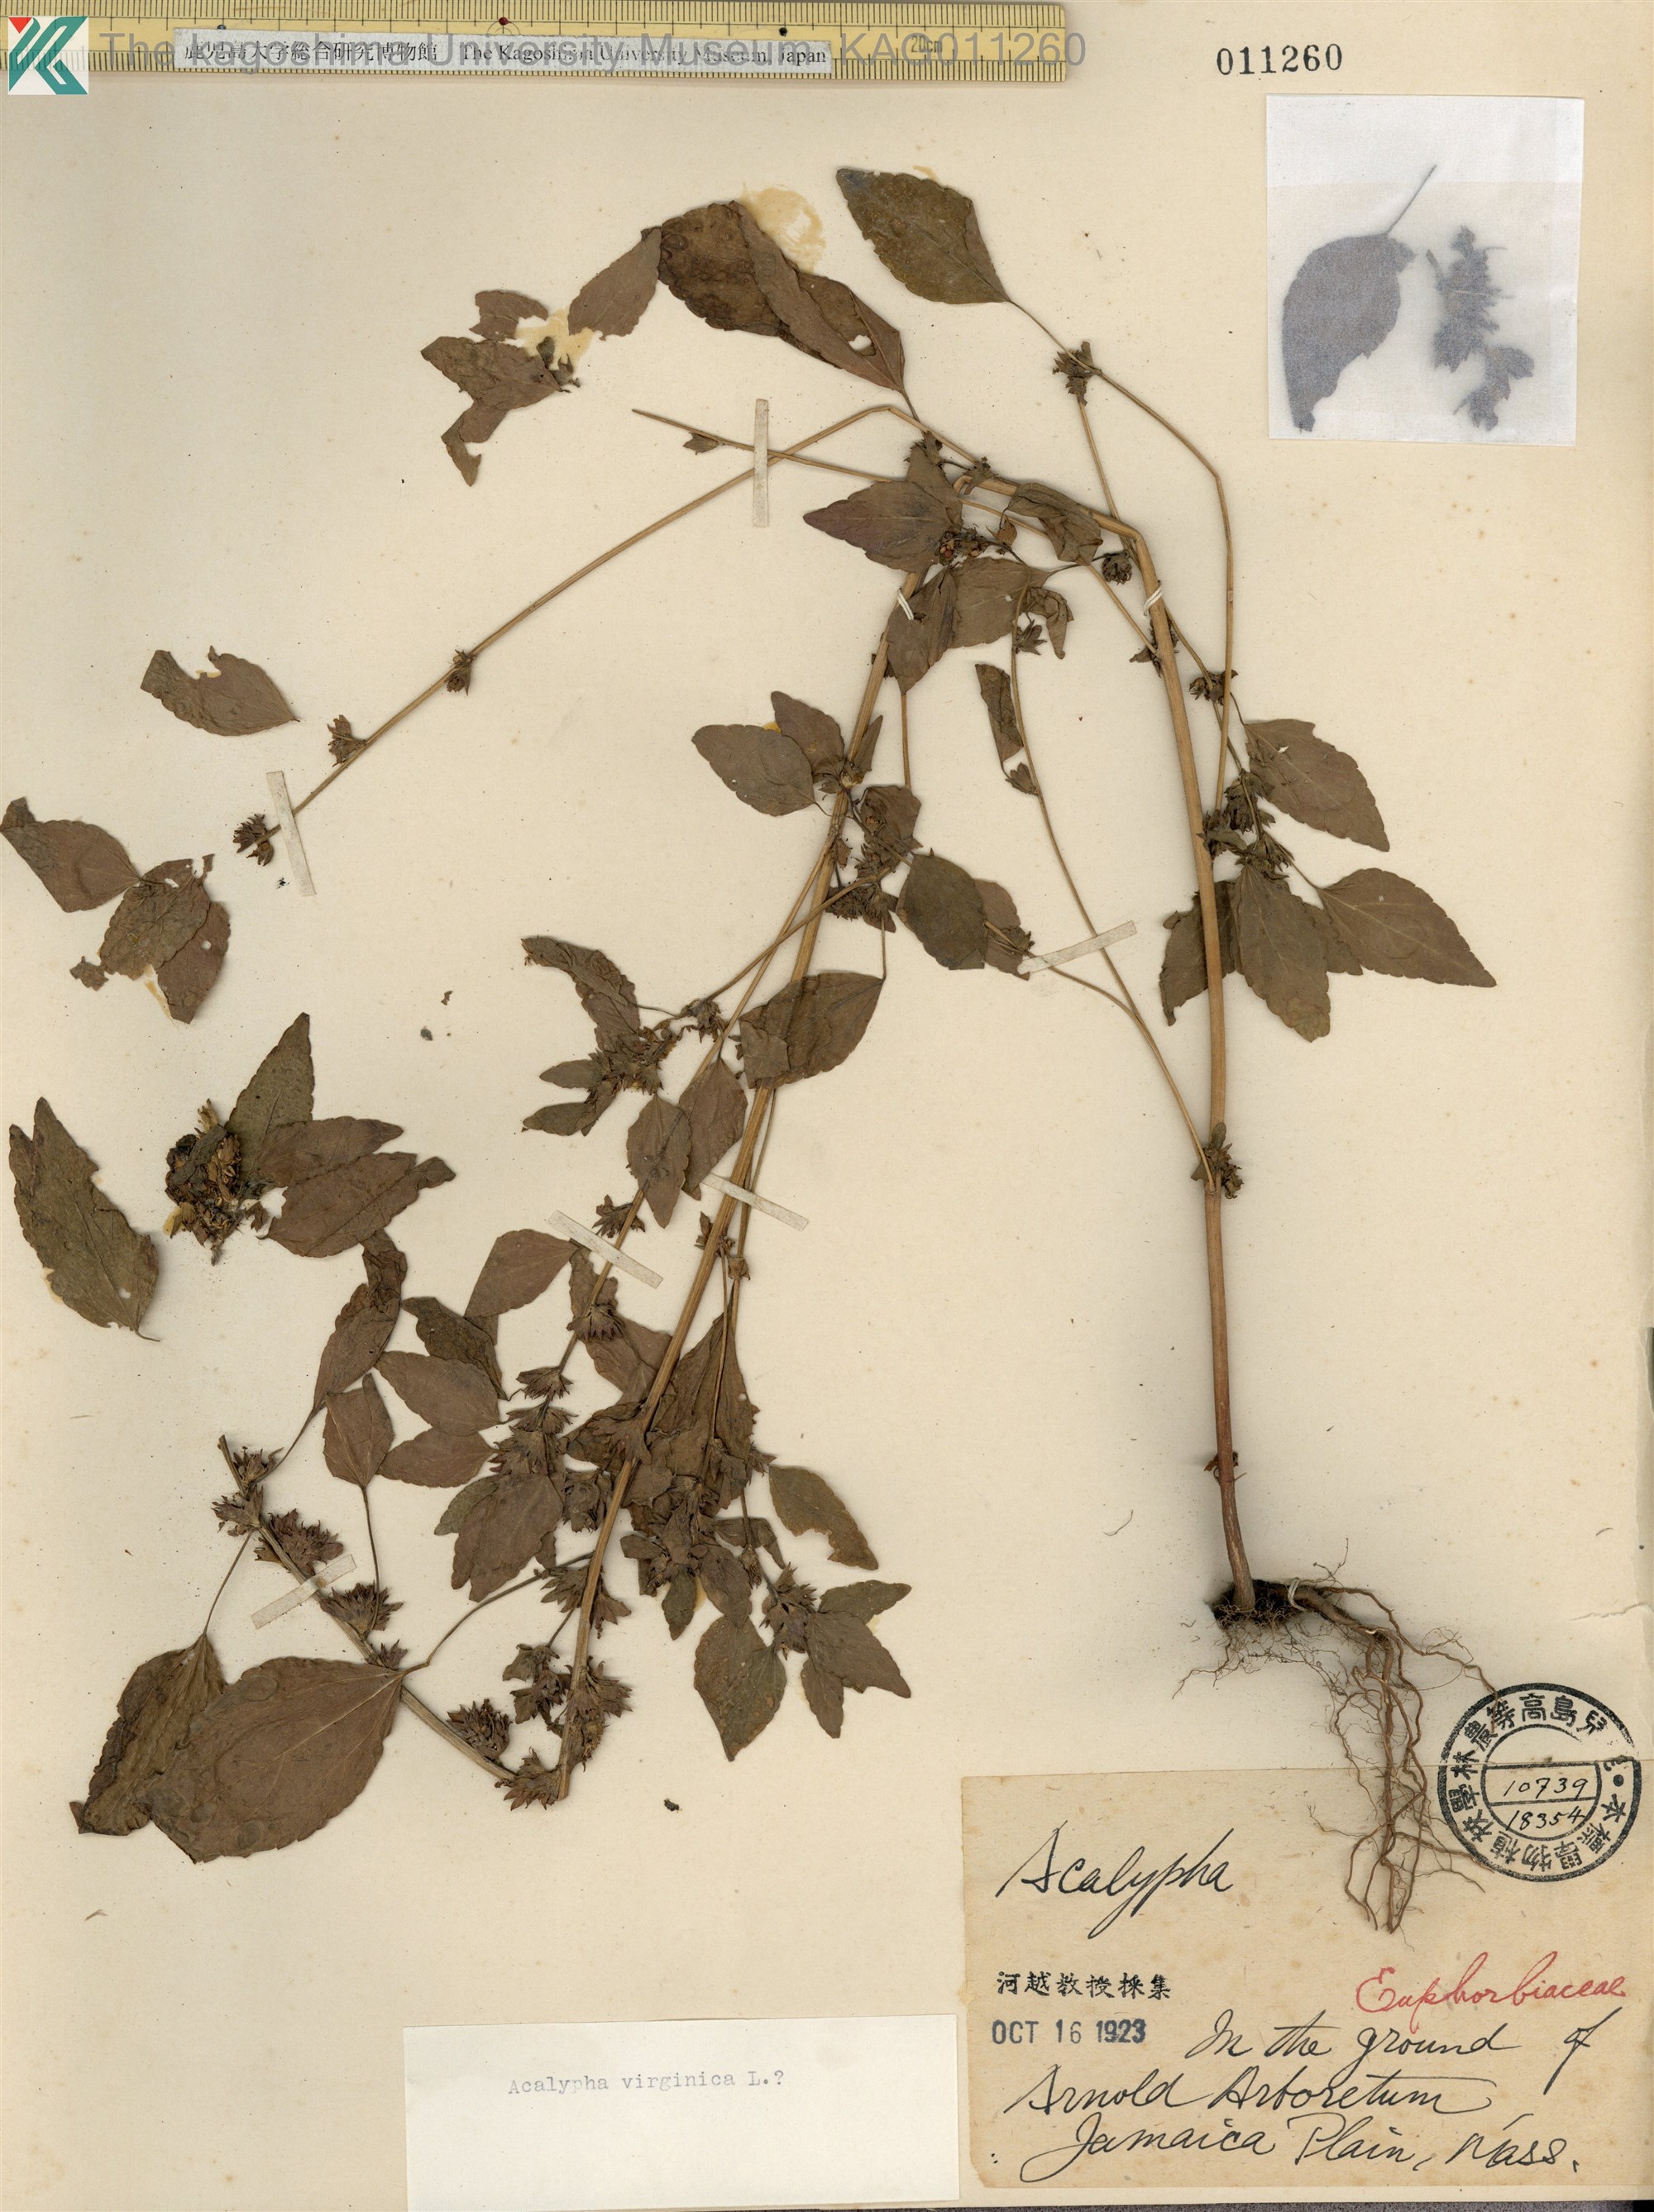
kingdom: Plantae
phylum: Tracheophyta
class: Magnoliopsida
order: Malpighiales
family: Euphorbiaceae
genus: Acalypha
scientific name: Acalypha virginica
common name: Virginia copperleaf
